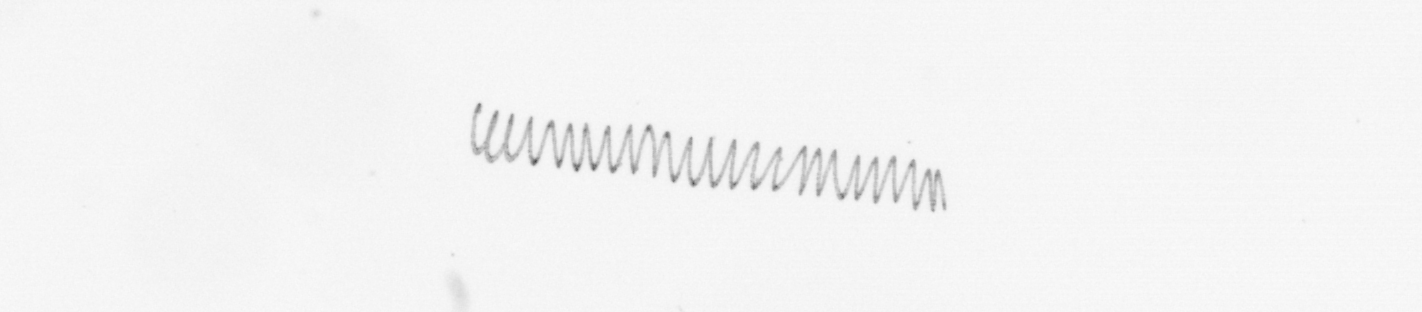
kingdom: Chromista
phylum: Ochrophyta
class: Bacillariophyceae
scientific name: Bacillariophyceae
